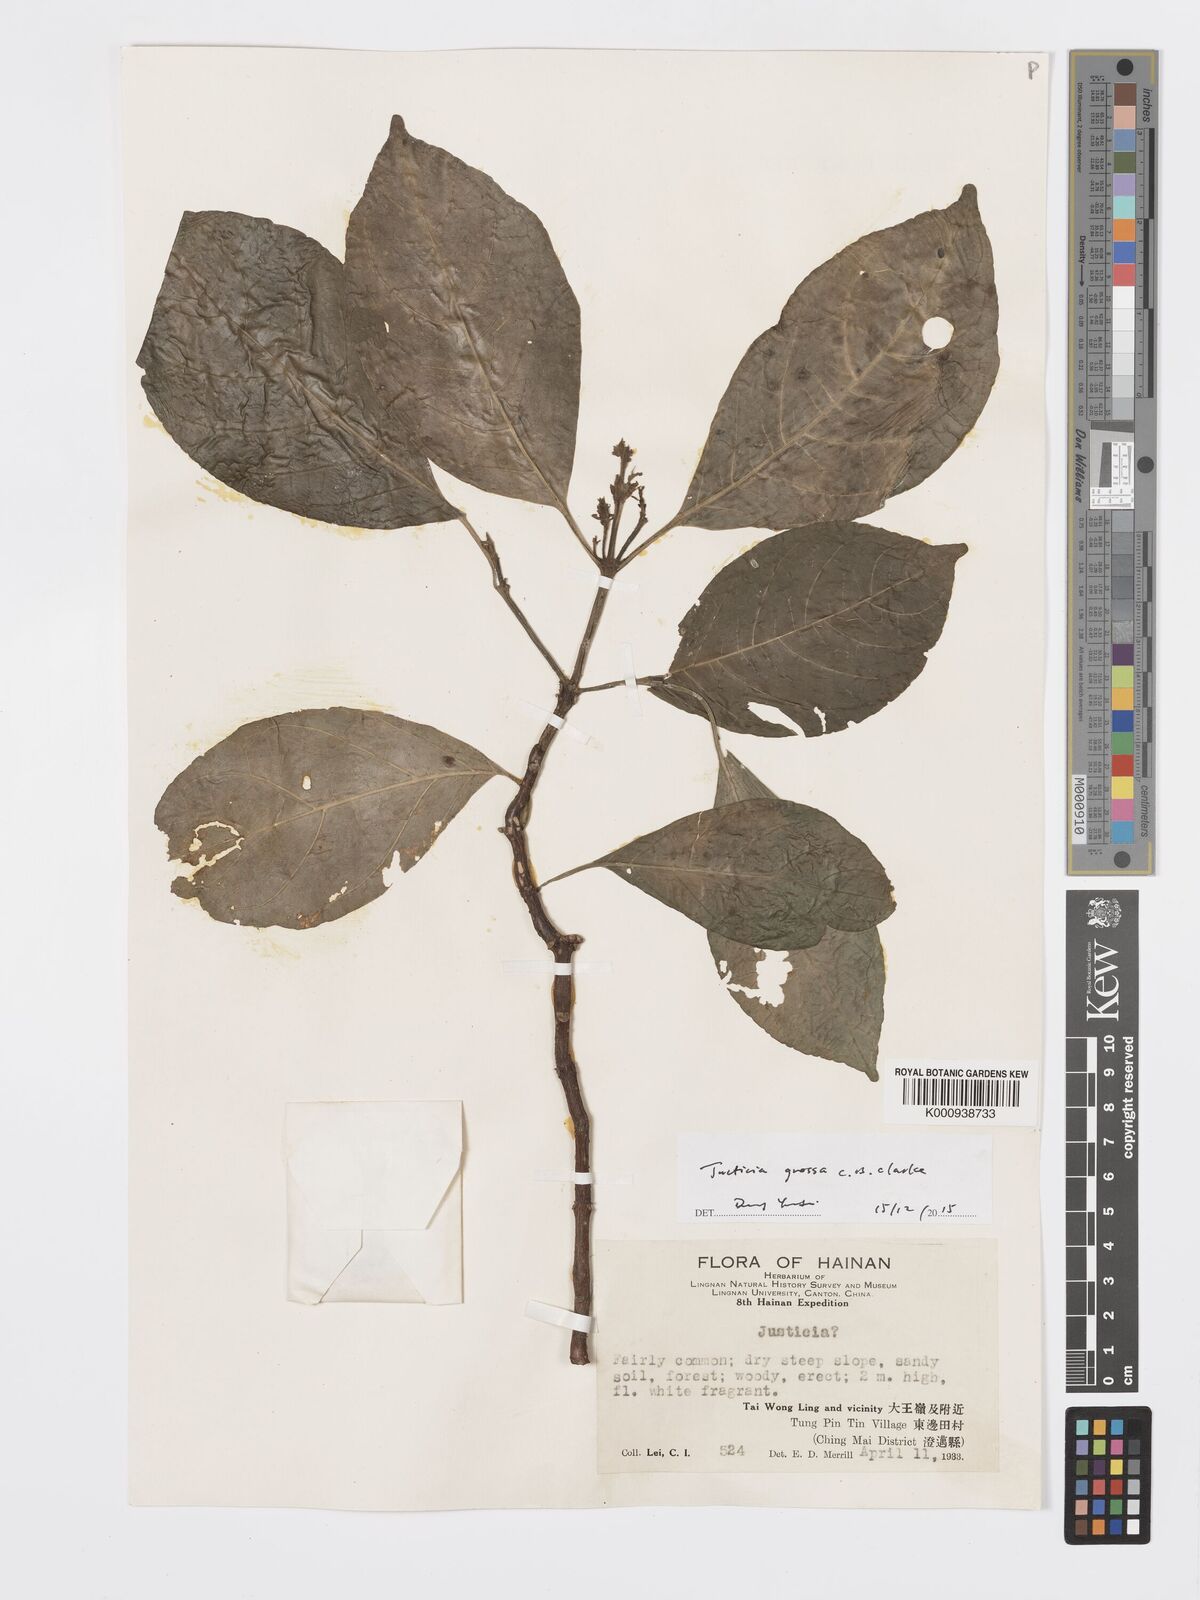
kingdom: Plantae
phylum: Tracheophyta
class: Magnoliopsida
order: Lamiales
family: Acanthaceae
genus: Ecbolium
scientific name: Ecbolium grossum
